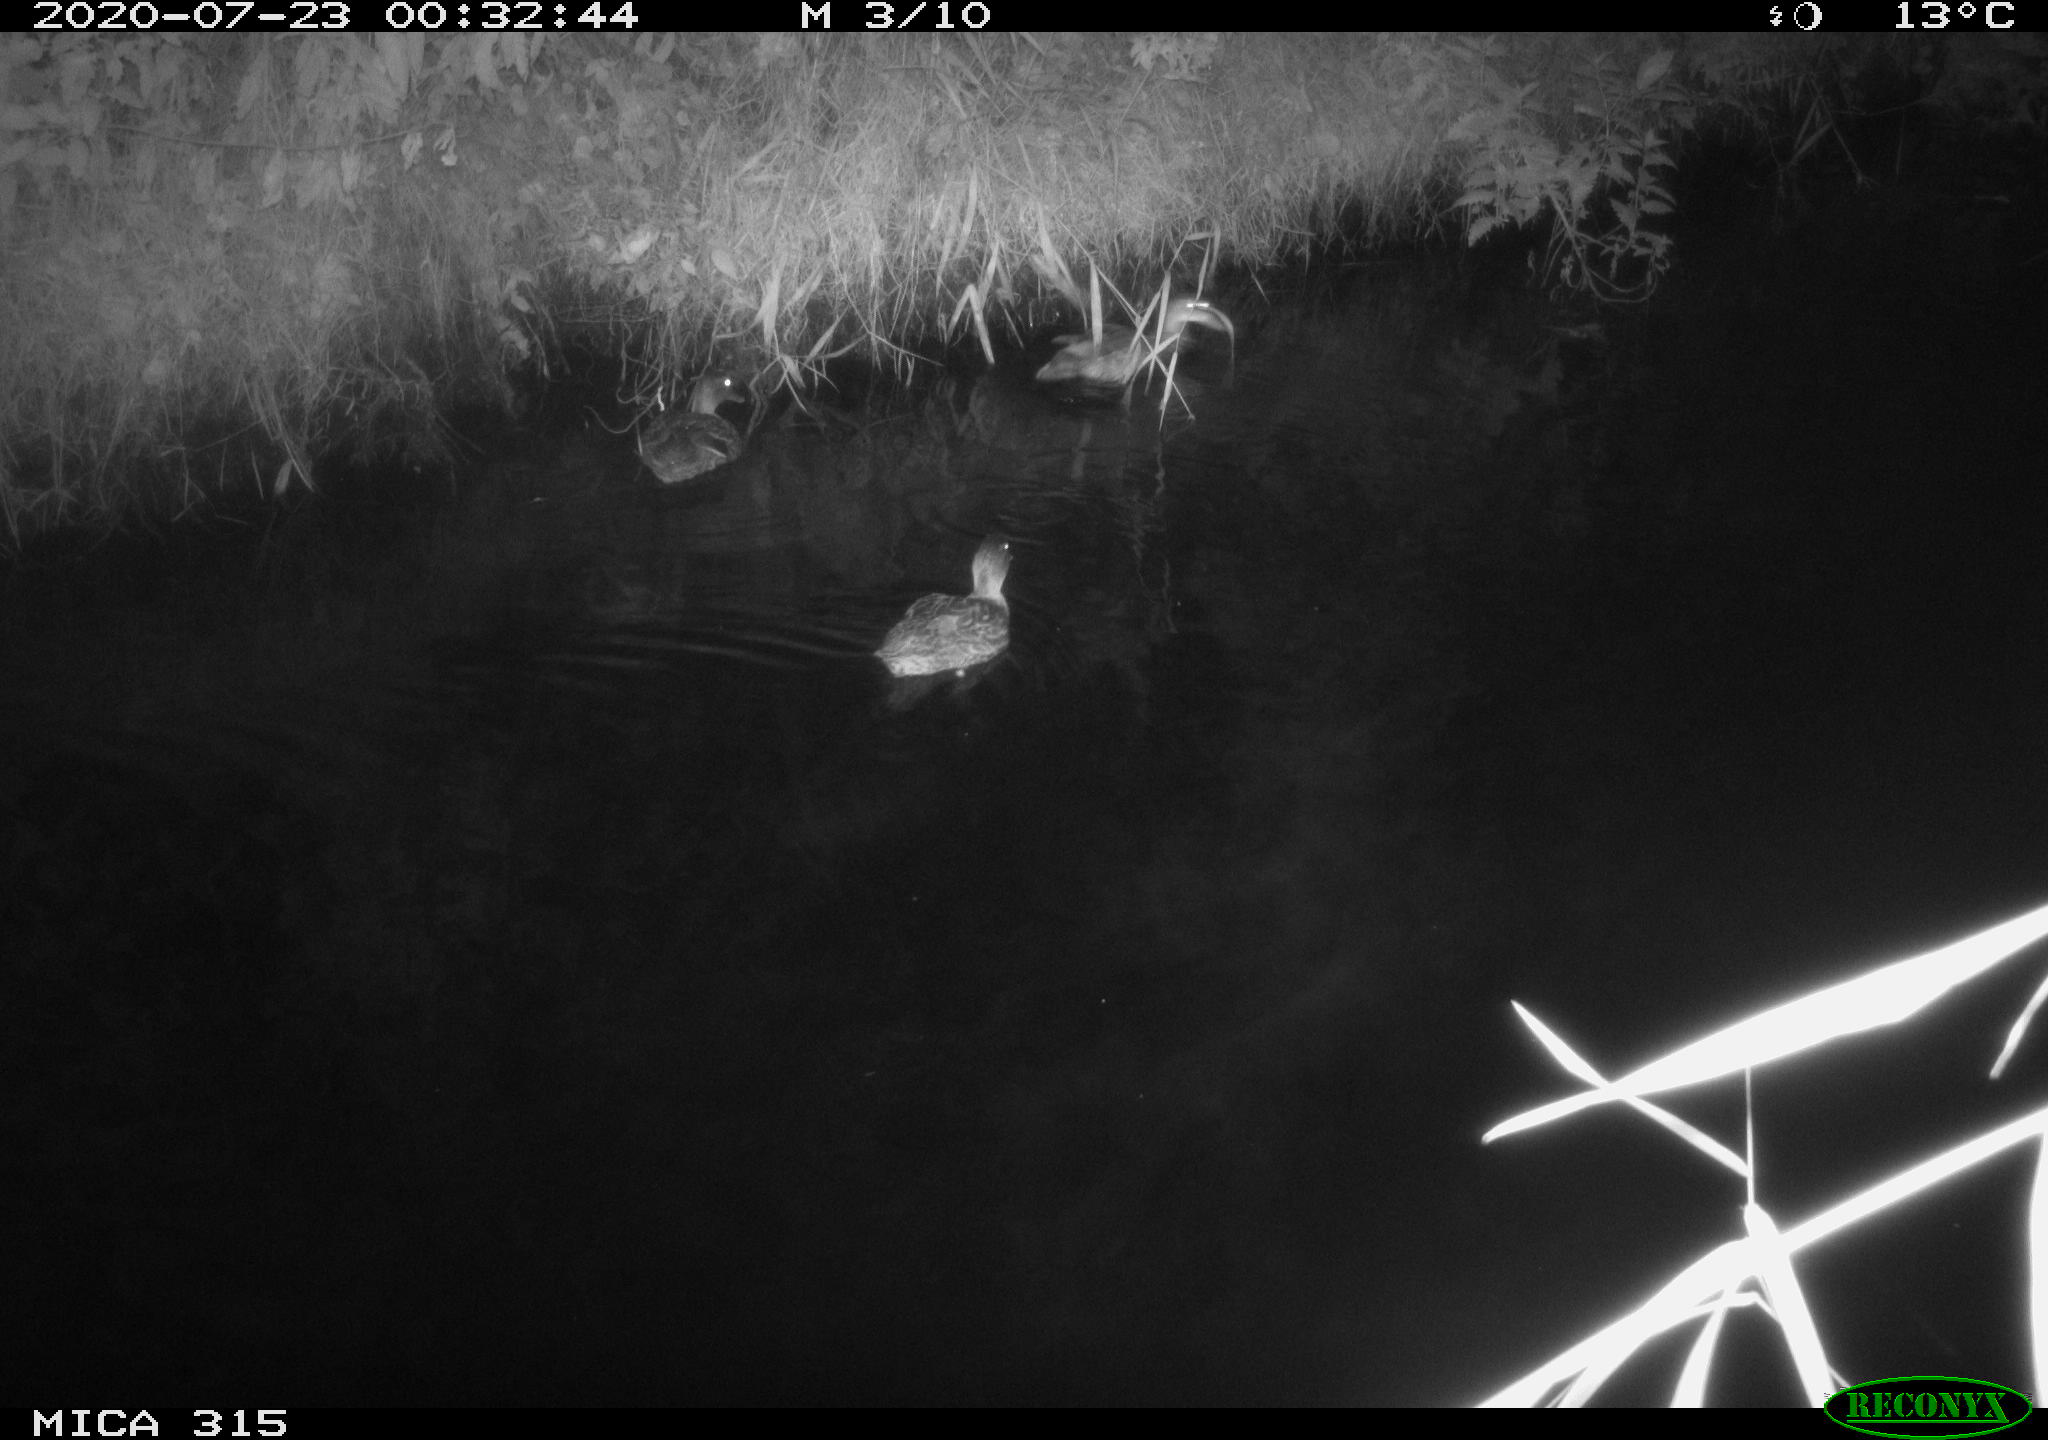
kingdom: Animalia
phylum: Chordata
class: Aves
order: Anseriformes
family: Anatidae
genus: Anas
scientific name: Anas platyrhynchos
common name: Mallard
